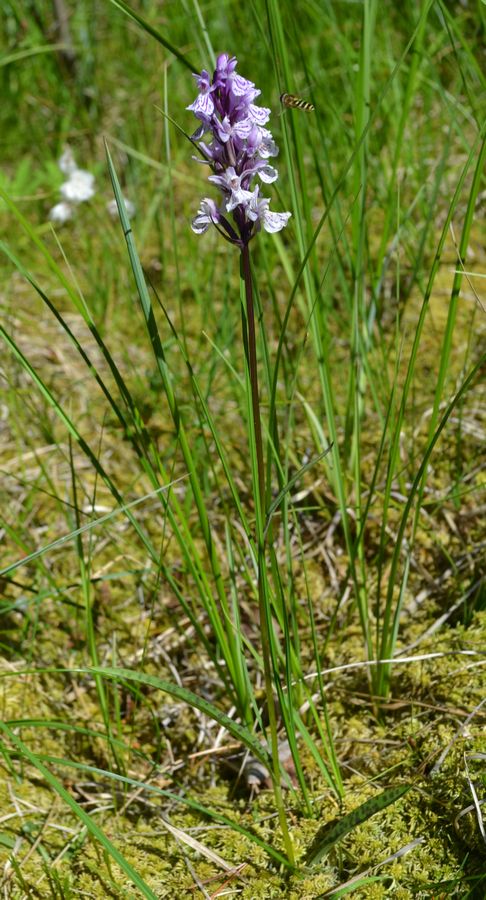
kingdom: Plantae
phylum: Tracheophyta
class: Liliopsida
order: Asparagales
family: Orchidaceae
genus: Dactylorhiza
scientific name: Dactylorhiza maculata
